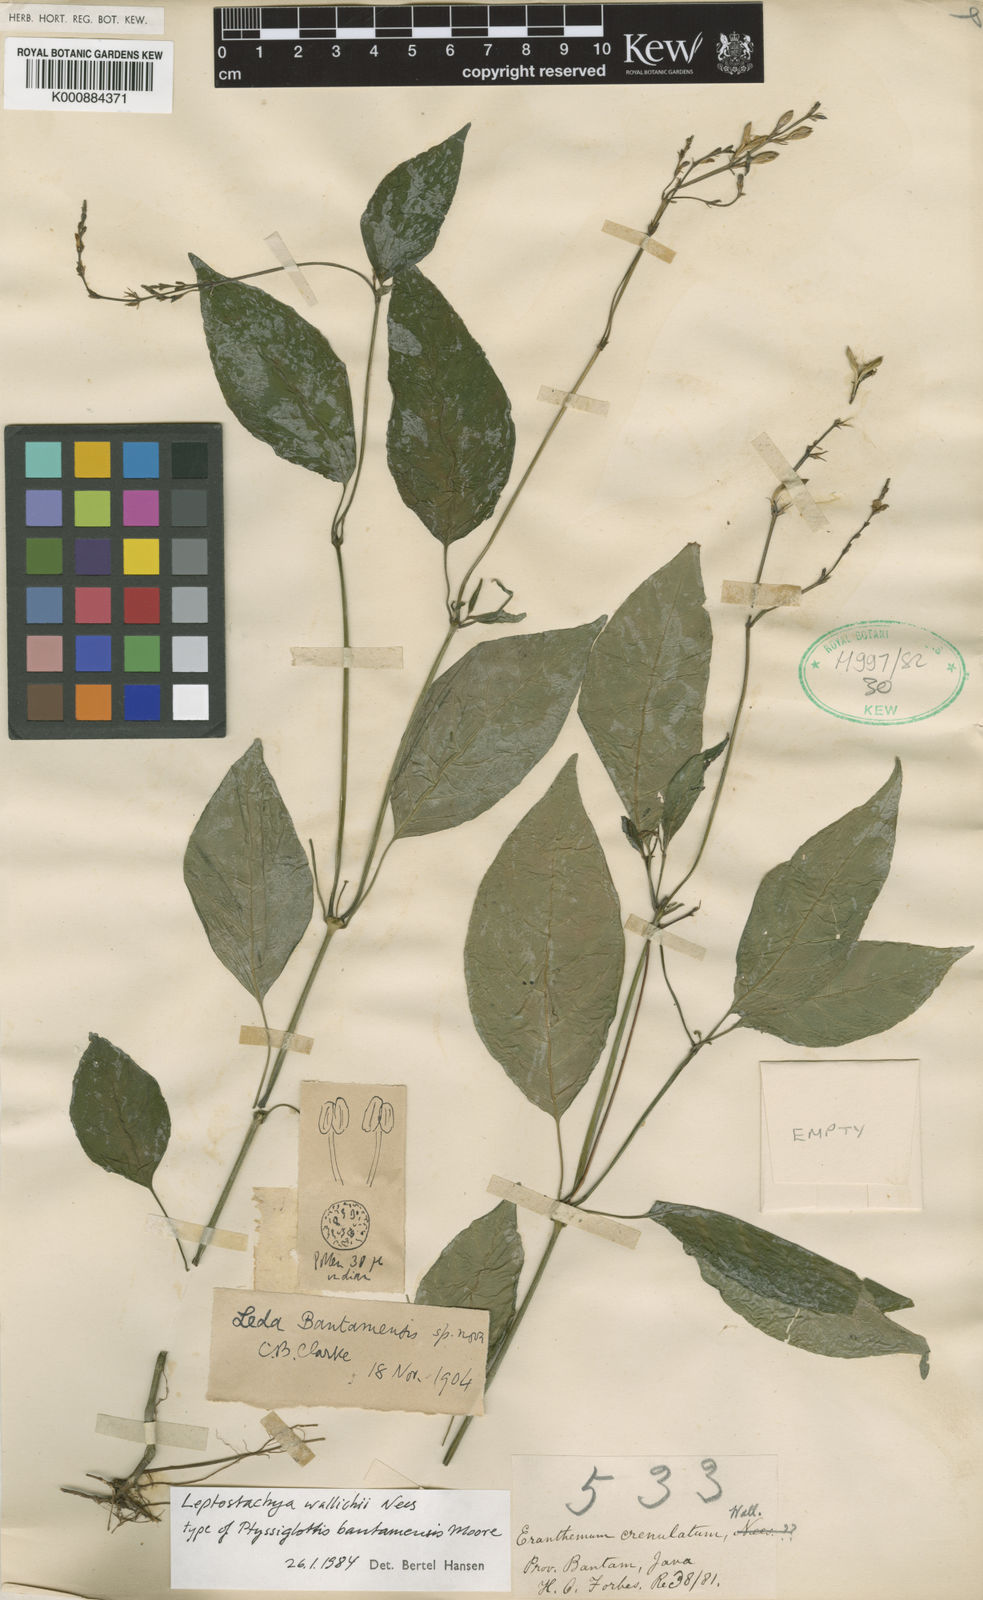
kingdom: Plantae
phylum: Tracheophyta
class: Magnoliopsida
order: Lamiales
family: Acanthaceae
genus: Leptostachya
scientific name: Leptostachya wallichii
